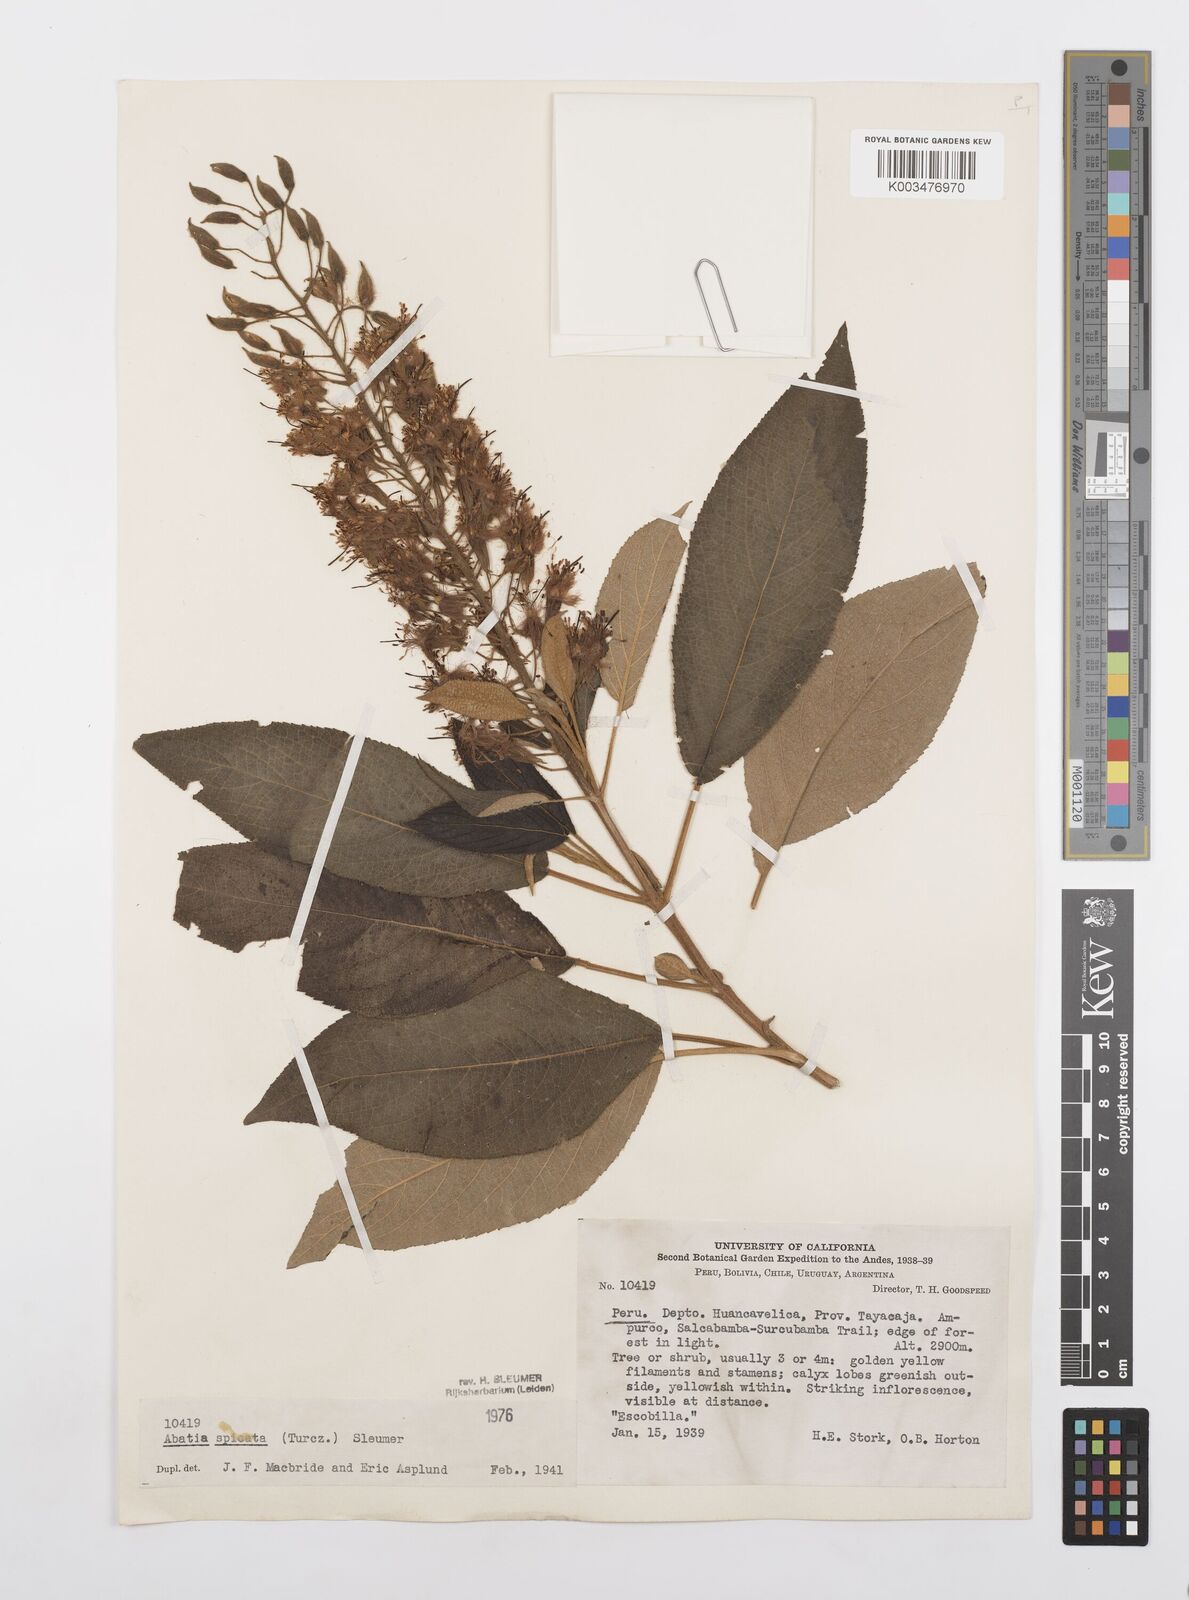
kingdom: Plantae
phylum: Tracheophyta
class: Magnoliopsida
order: Malpighiales
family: Salicaceae
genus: Abatia
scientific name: Abatia spicata
